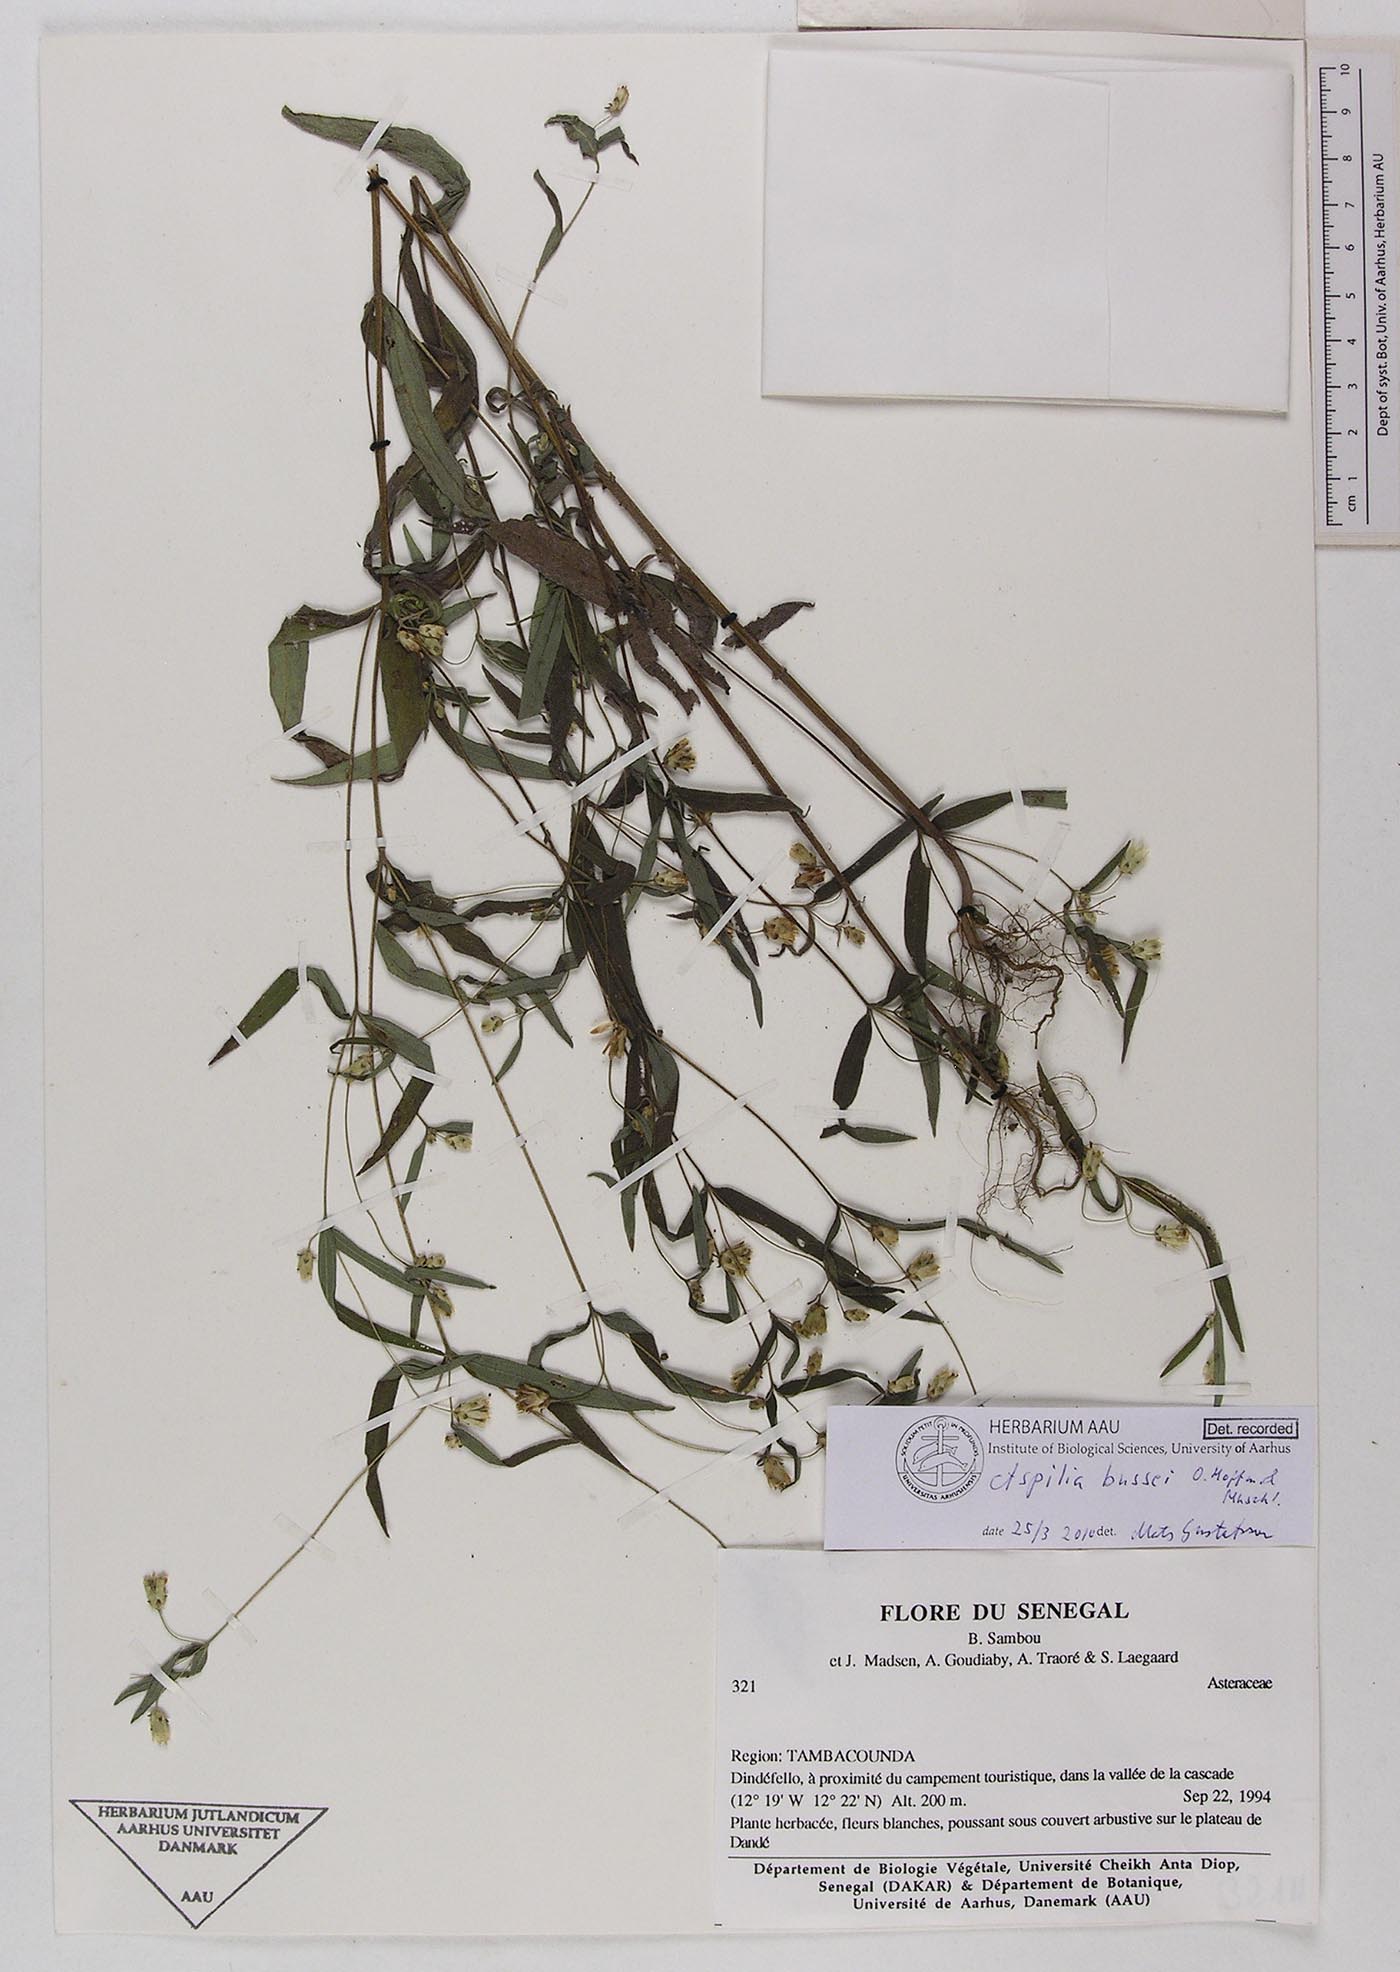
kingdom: Plantae
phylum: Tracheophyta
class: Magnoliopsida
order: Asterales
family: Asteraceae
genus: Aspilia
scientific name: Aspilia bussei
